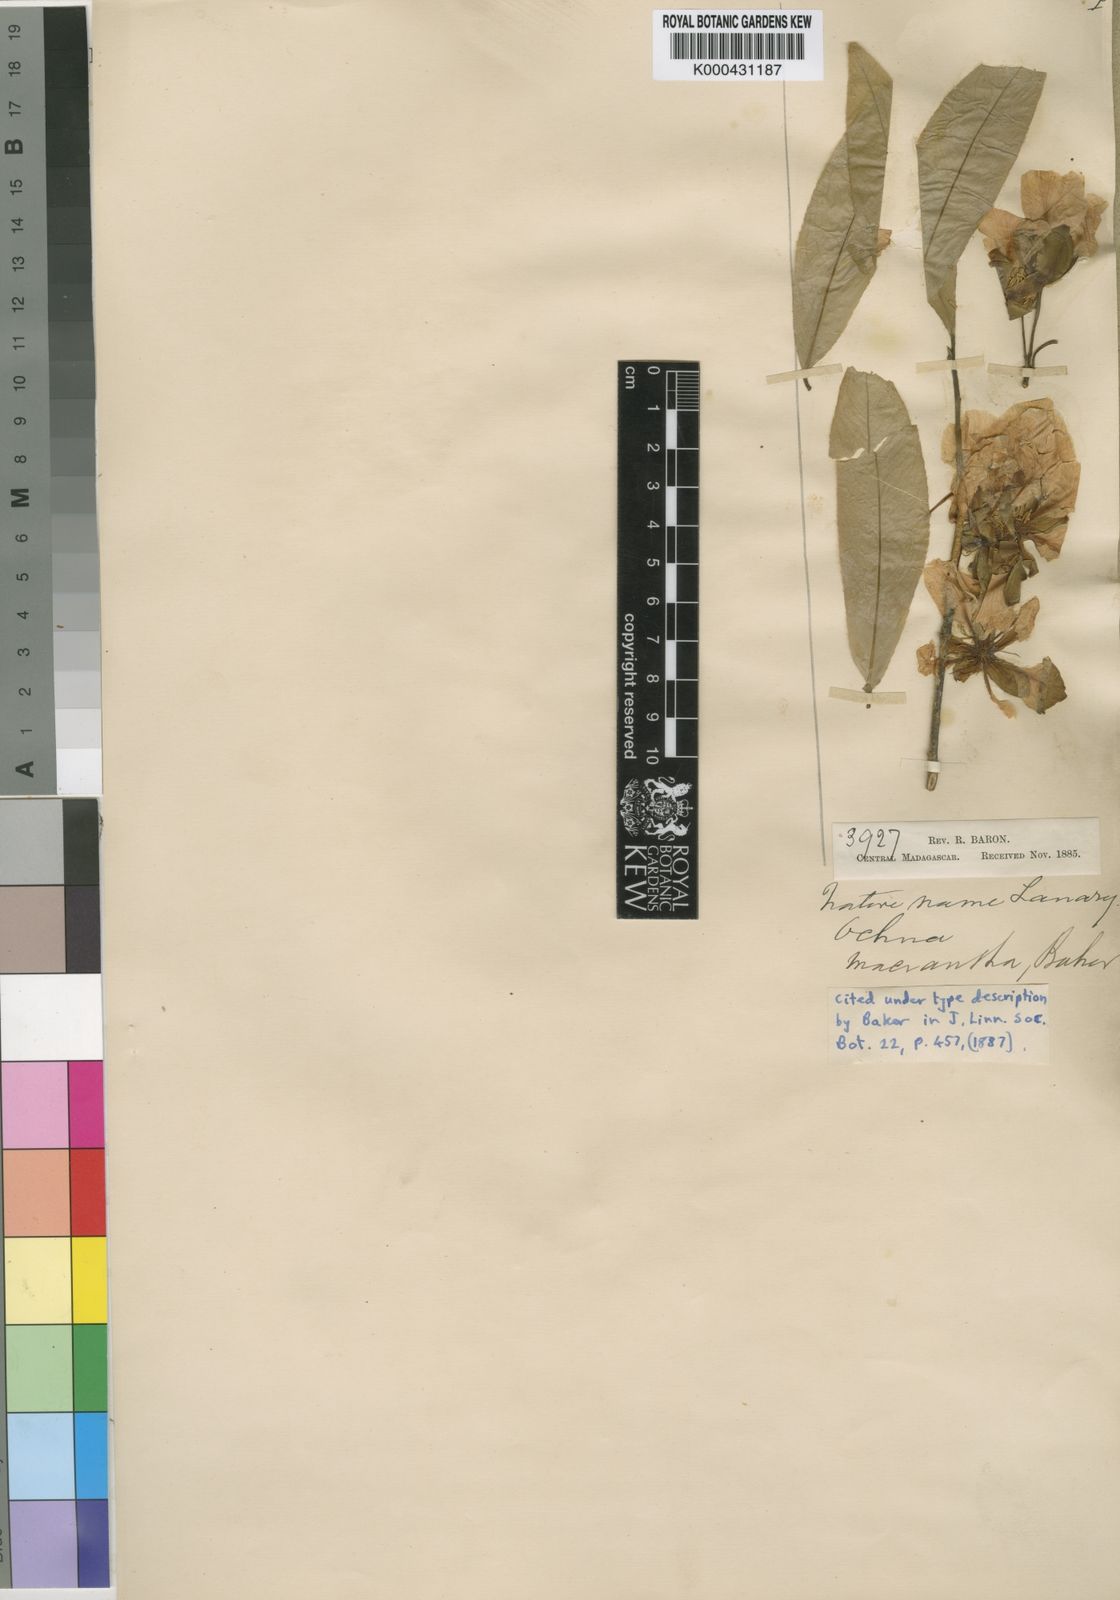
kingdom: Plantae
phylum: Tracheophyta
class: Magnoliopsida
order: Malpighiales
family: Ochnaceae
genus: Ochna
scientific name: Ochna macrantha
